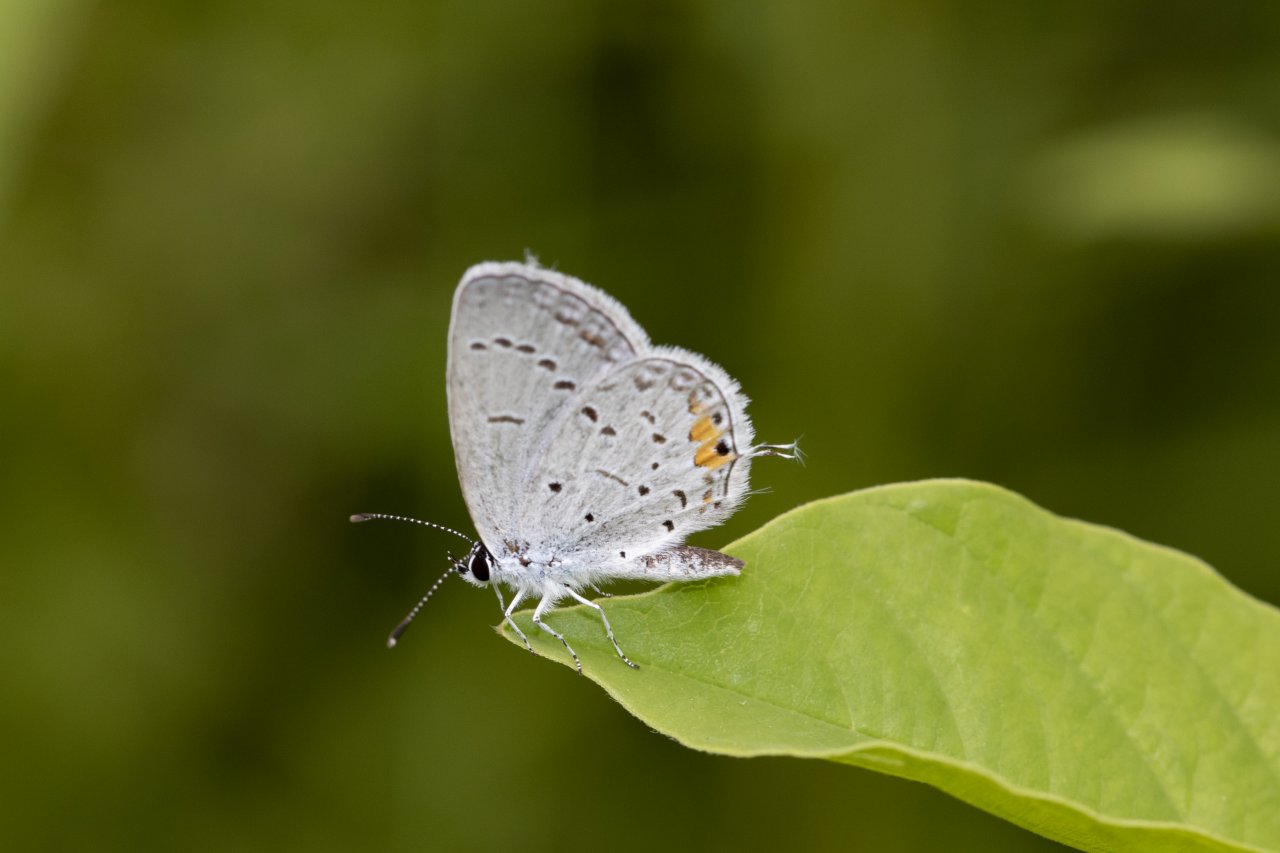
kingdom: Animalia
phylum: Arthropoda
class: Insecta
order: Lepidoptera
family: Lycaenidae
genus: Elkalyce
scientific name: Elkalyce comyntas
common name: Eastern Tailed-Blue
